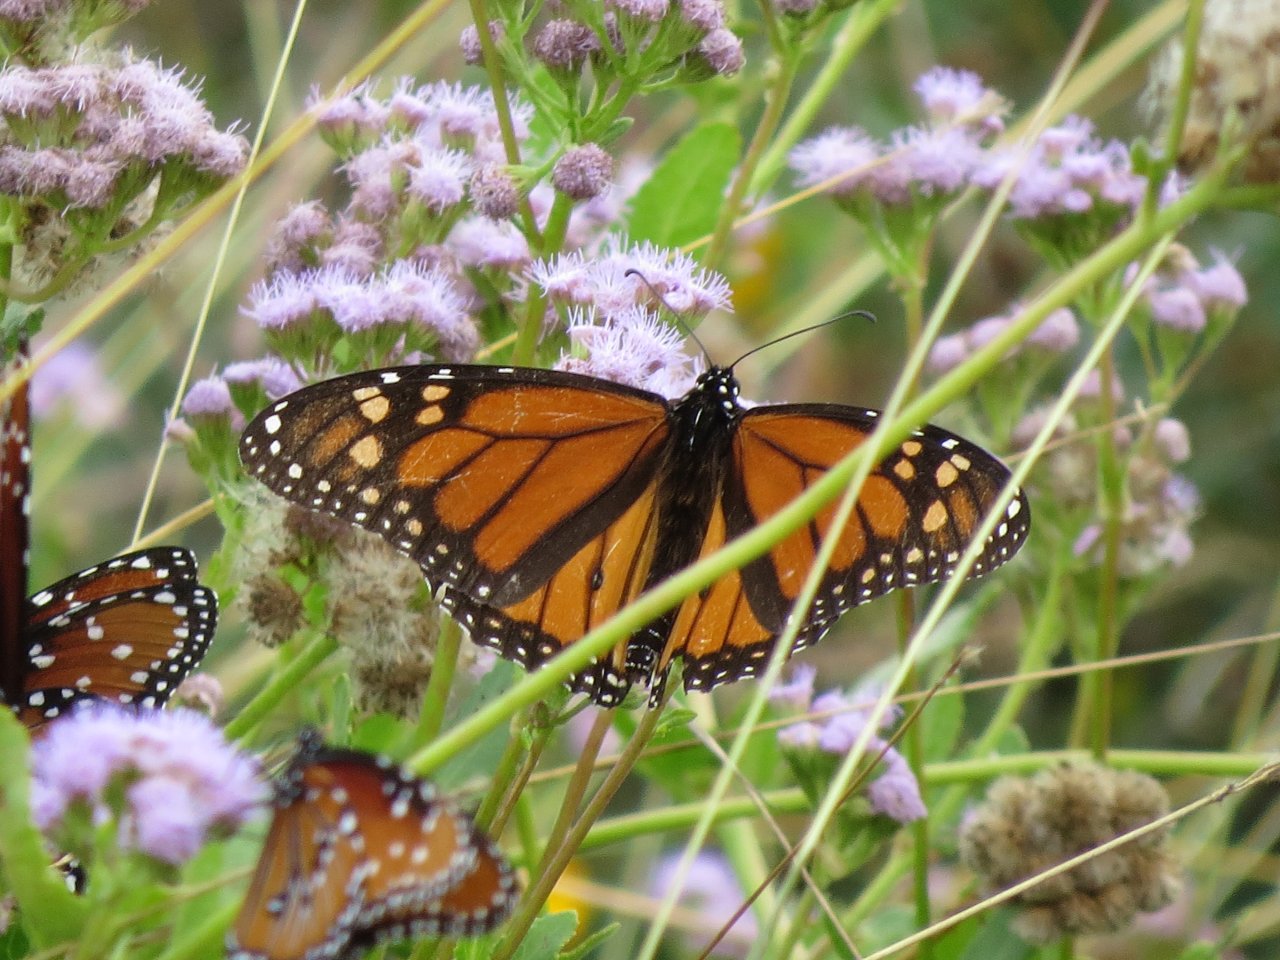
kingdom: Animalia
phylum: Arthropoda
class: Insecta
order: Lepidoptera
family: Nymphalidae
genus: Danaus
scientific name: Danaus plexippus
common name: Monarch
